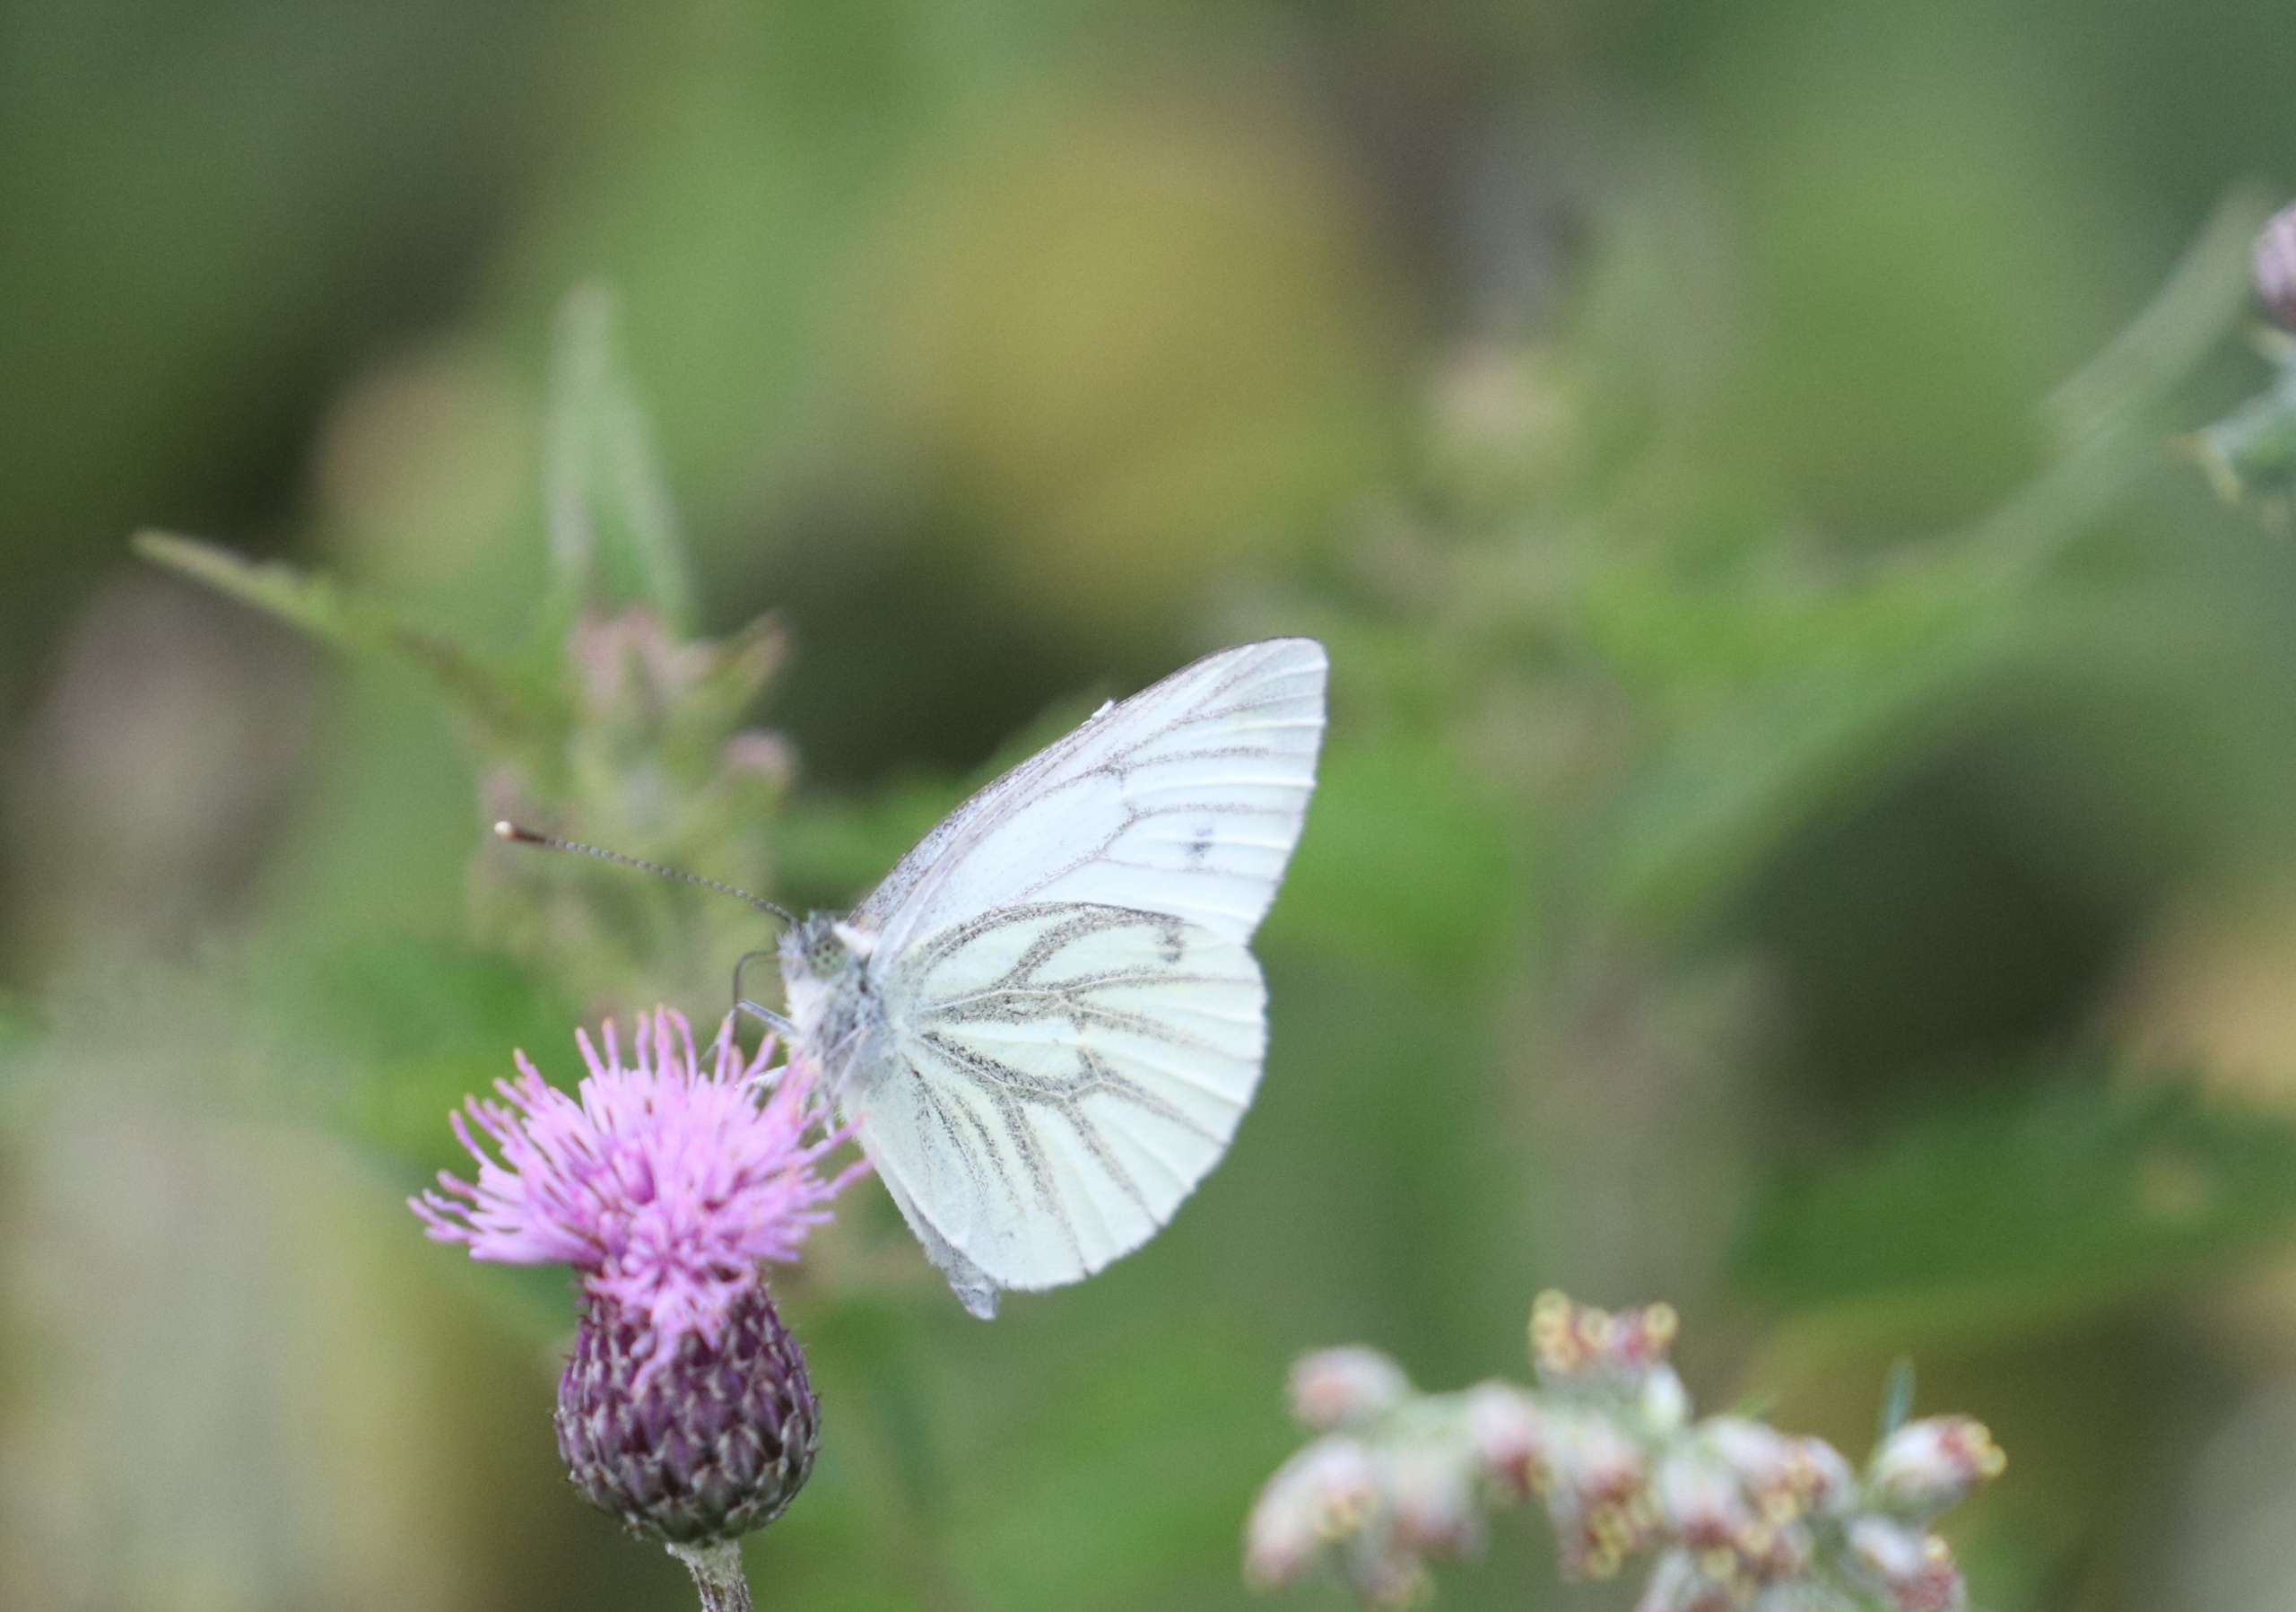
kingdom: Animalia
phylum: Arthropoda
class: Insecta
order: Lepidoptera
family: Pieridae
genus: Pieris
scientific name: Pieris napi
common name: Grønåret kålsommerfugl
